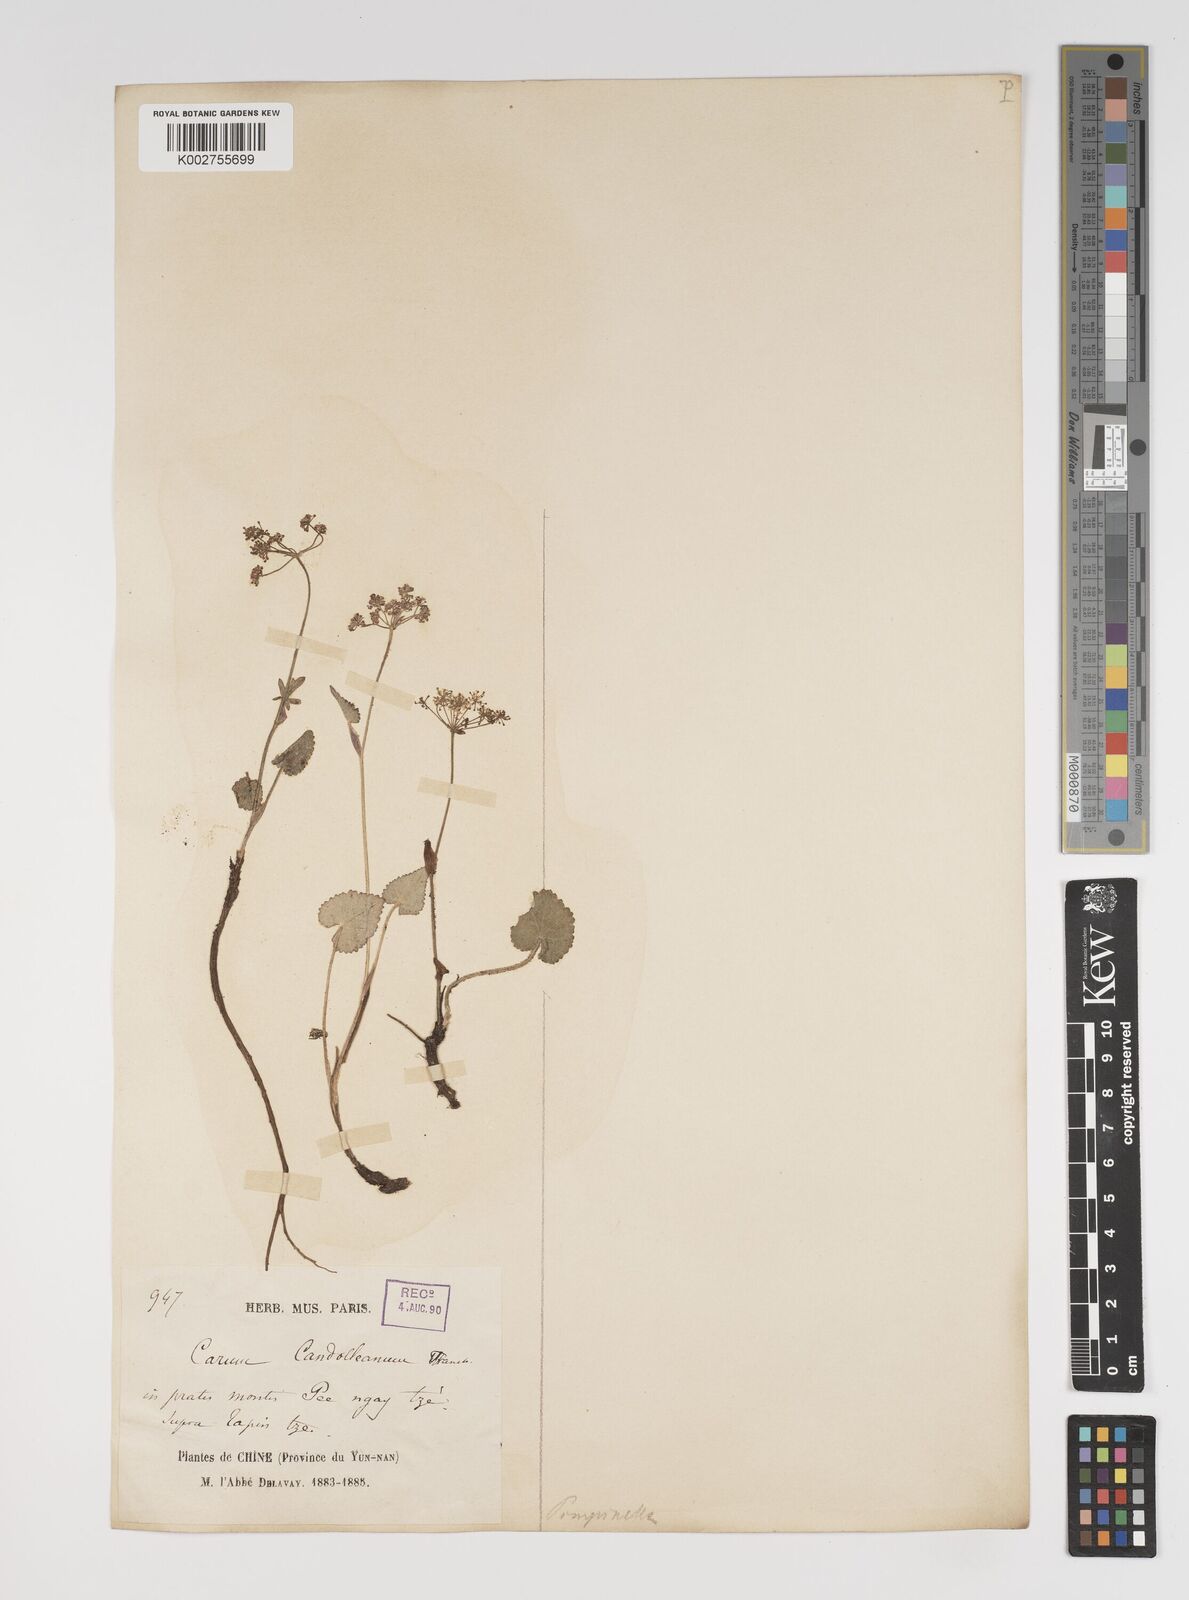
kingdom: Plantae
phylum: Tracheophyta
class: Magnoliopsida
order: Apiales
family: Apiaceae
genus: Pimpinella
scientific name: Pimpinella candolleana
